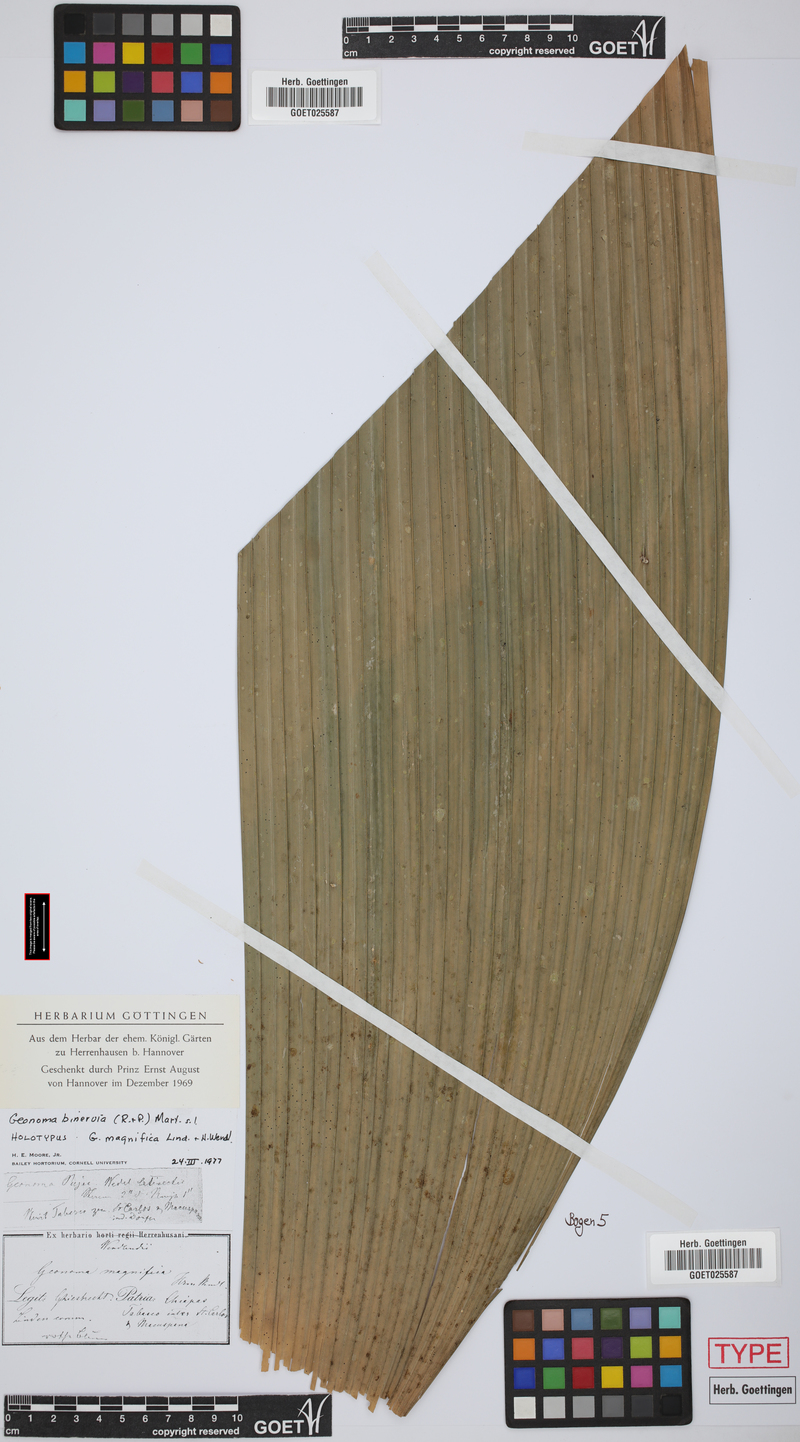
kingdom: Plantae
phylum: Tracheophyta
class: Liliopsida
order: Arecales
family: Arecaceae
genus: Geonoma
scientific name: Geonoma pinnatifrons
